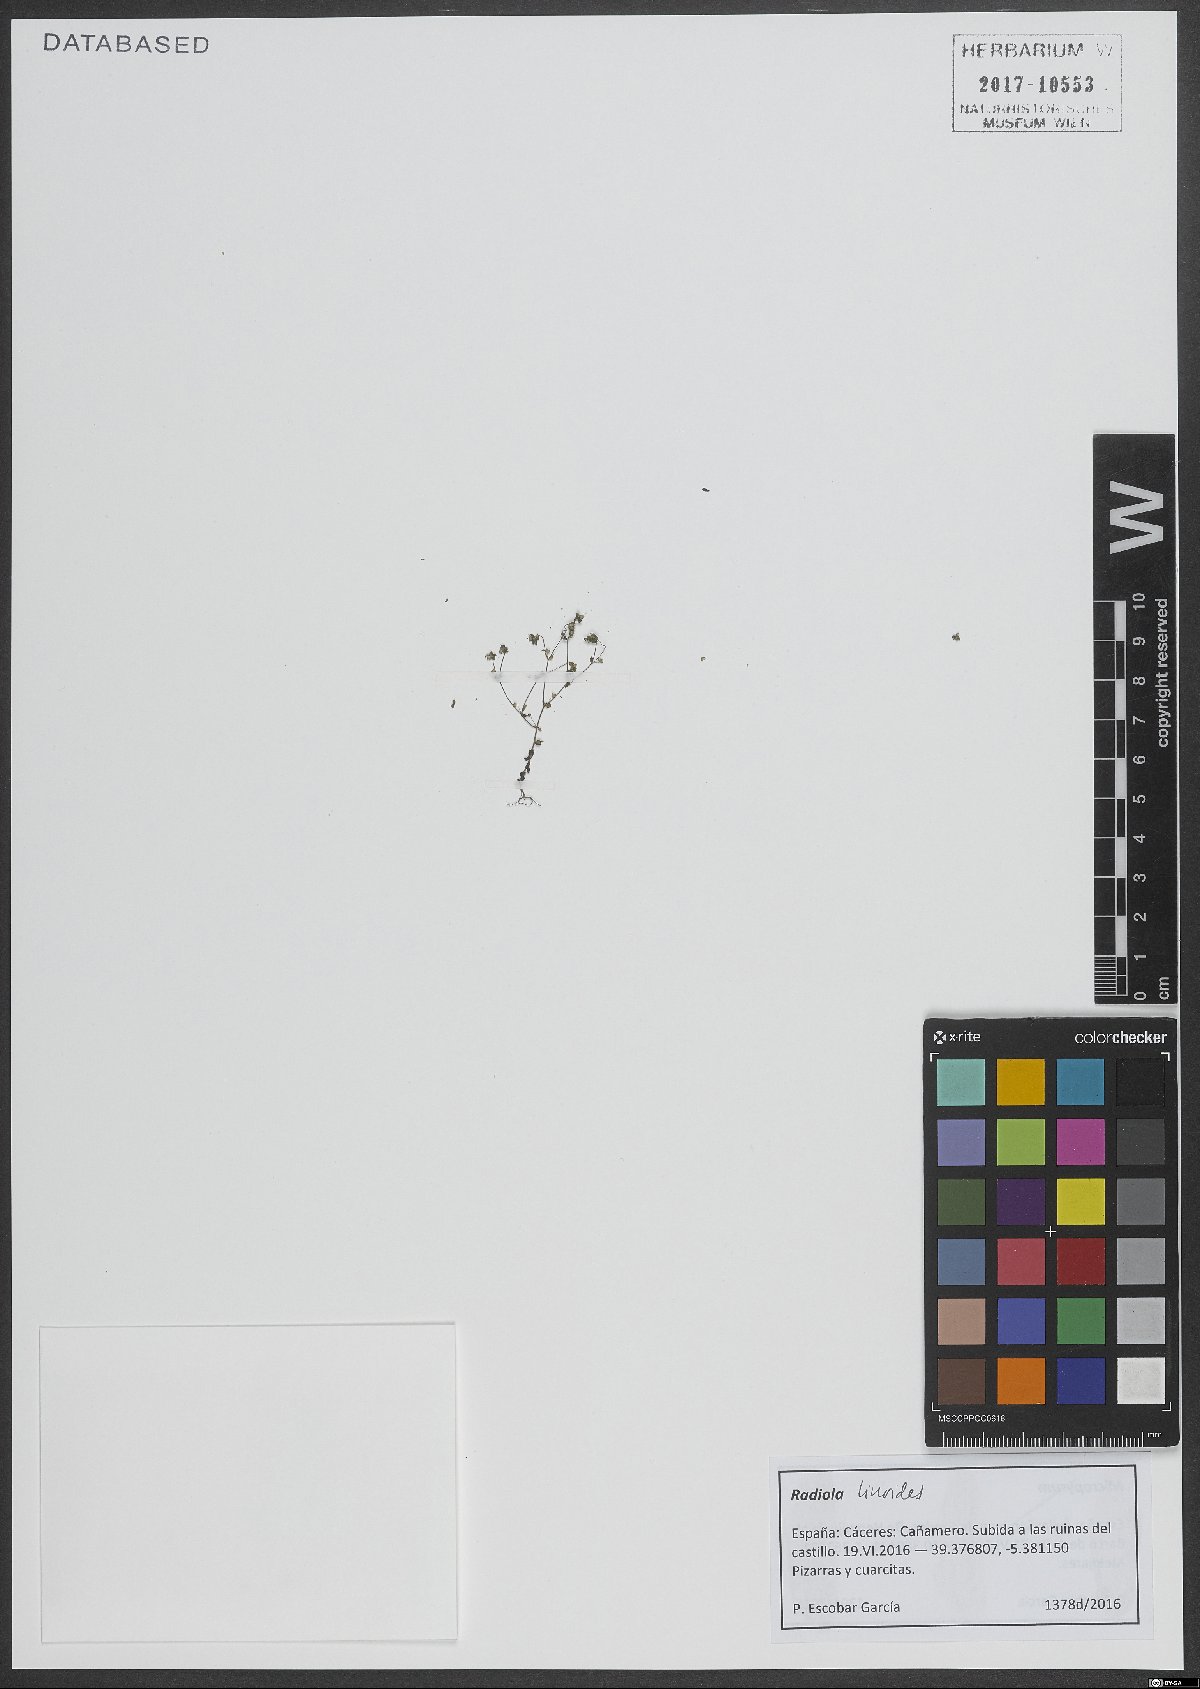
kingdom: Plantae
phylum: Tracheophyta
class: Magnoliopsida
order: Malpighiales
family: Linaceae
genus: Radiola
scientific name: Radiola
